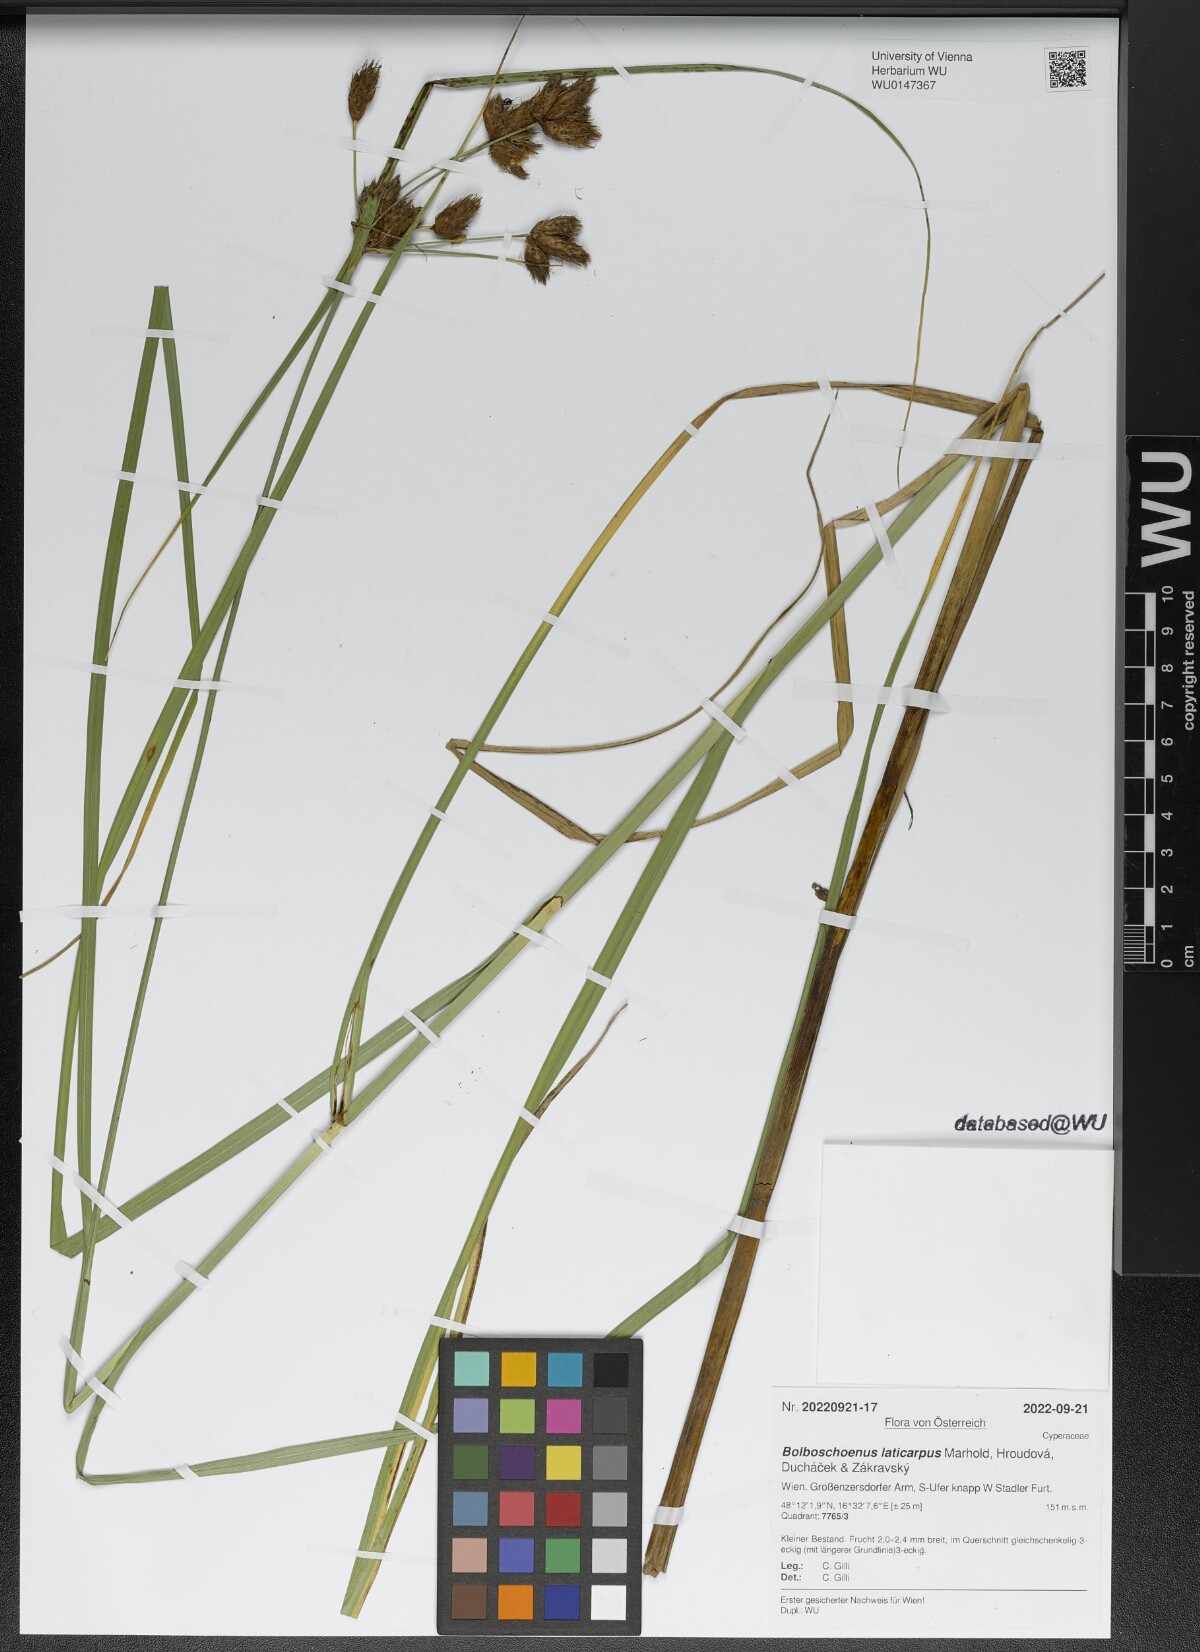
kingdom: Plantae
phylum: Tracheophyta
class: Liliopsida
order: Poales
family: Cyperaceae
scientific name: Cyperaceae
